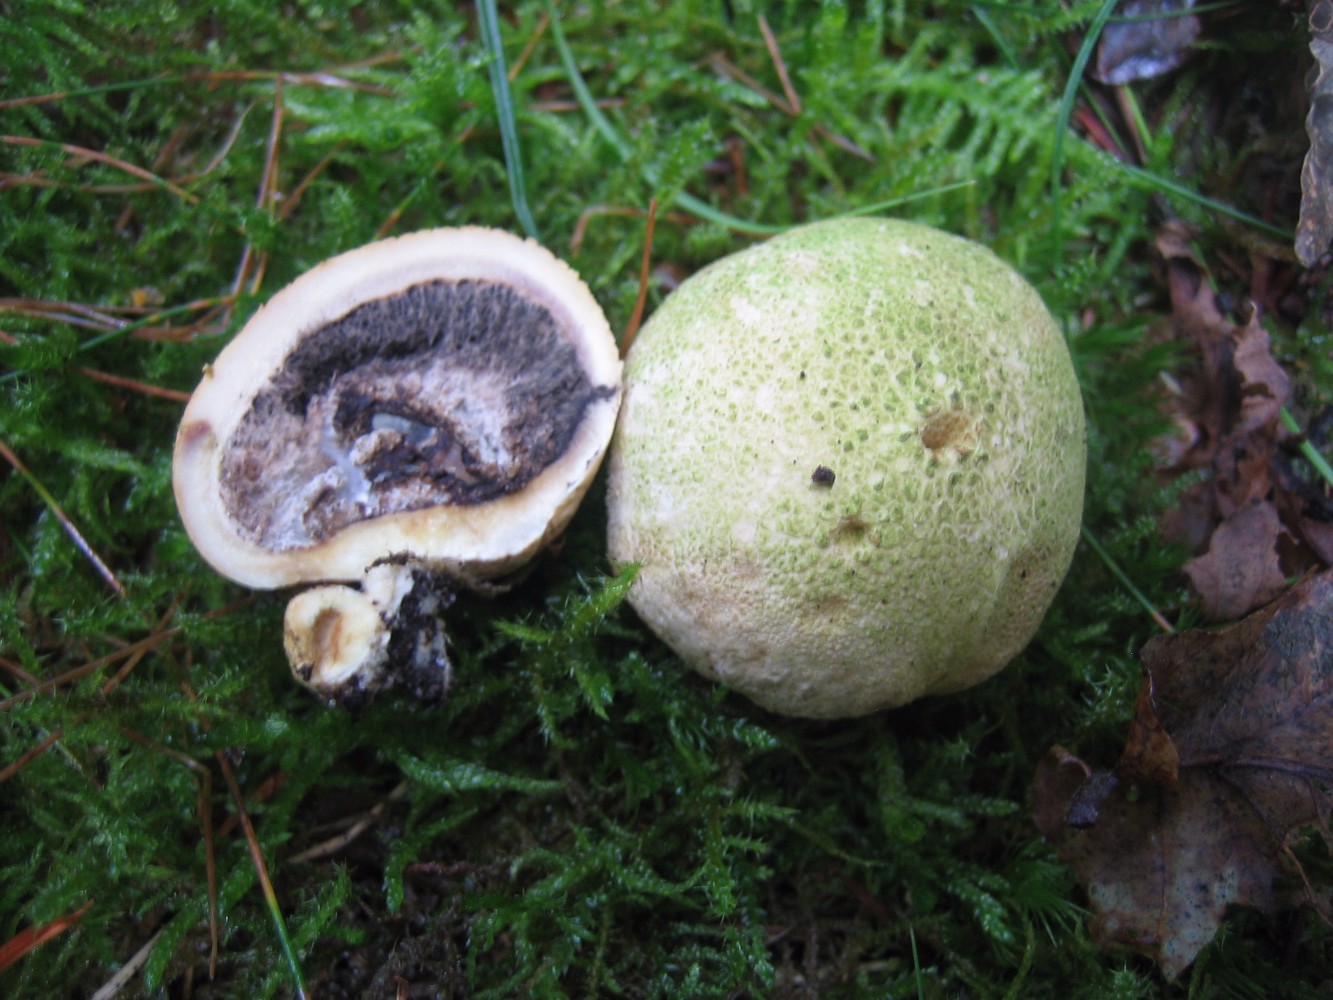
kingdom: Fungi
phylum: Basidiomycota
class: Agaricomycetes
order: Boletales
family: Sclerodermataceae
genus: Scleroderma
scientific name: Scleroderma citrinum
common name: almindelig bruskbold
